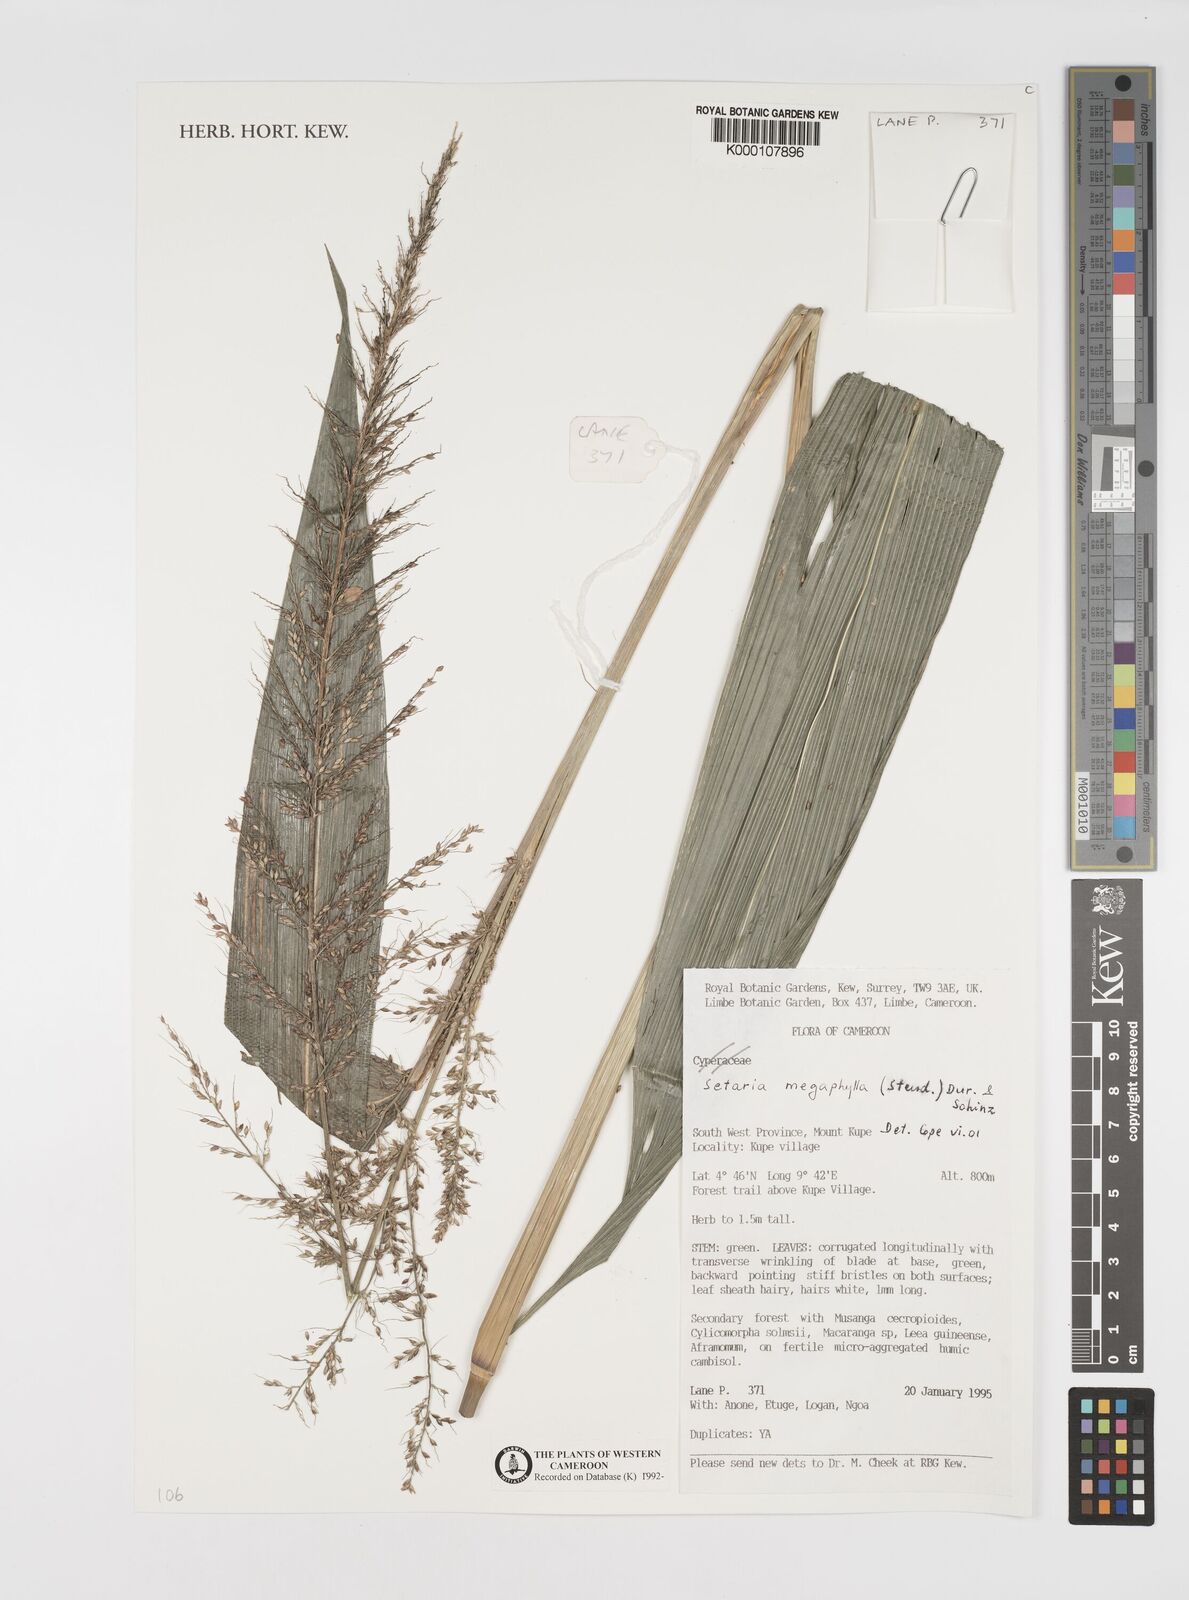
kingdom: Plantae
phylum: Tracheophyta
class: Liliopsida
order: Poales
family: Poaceae
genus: Setaria
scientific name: Setaria megaphylla
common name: Bigleaf bristlegrass
